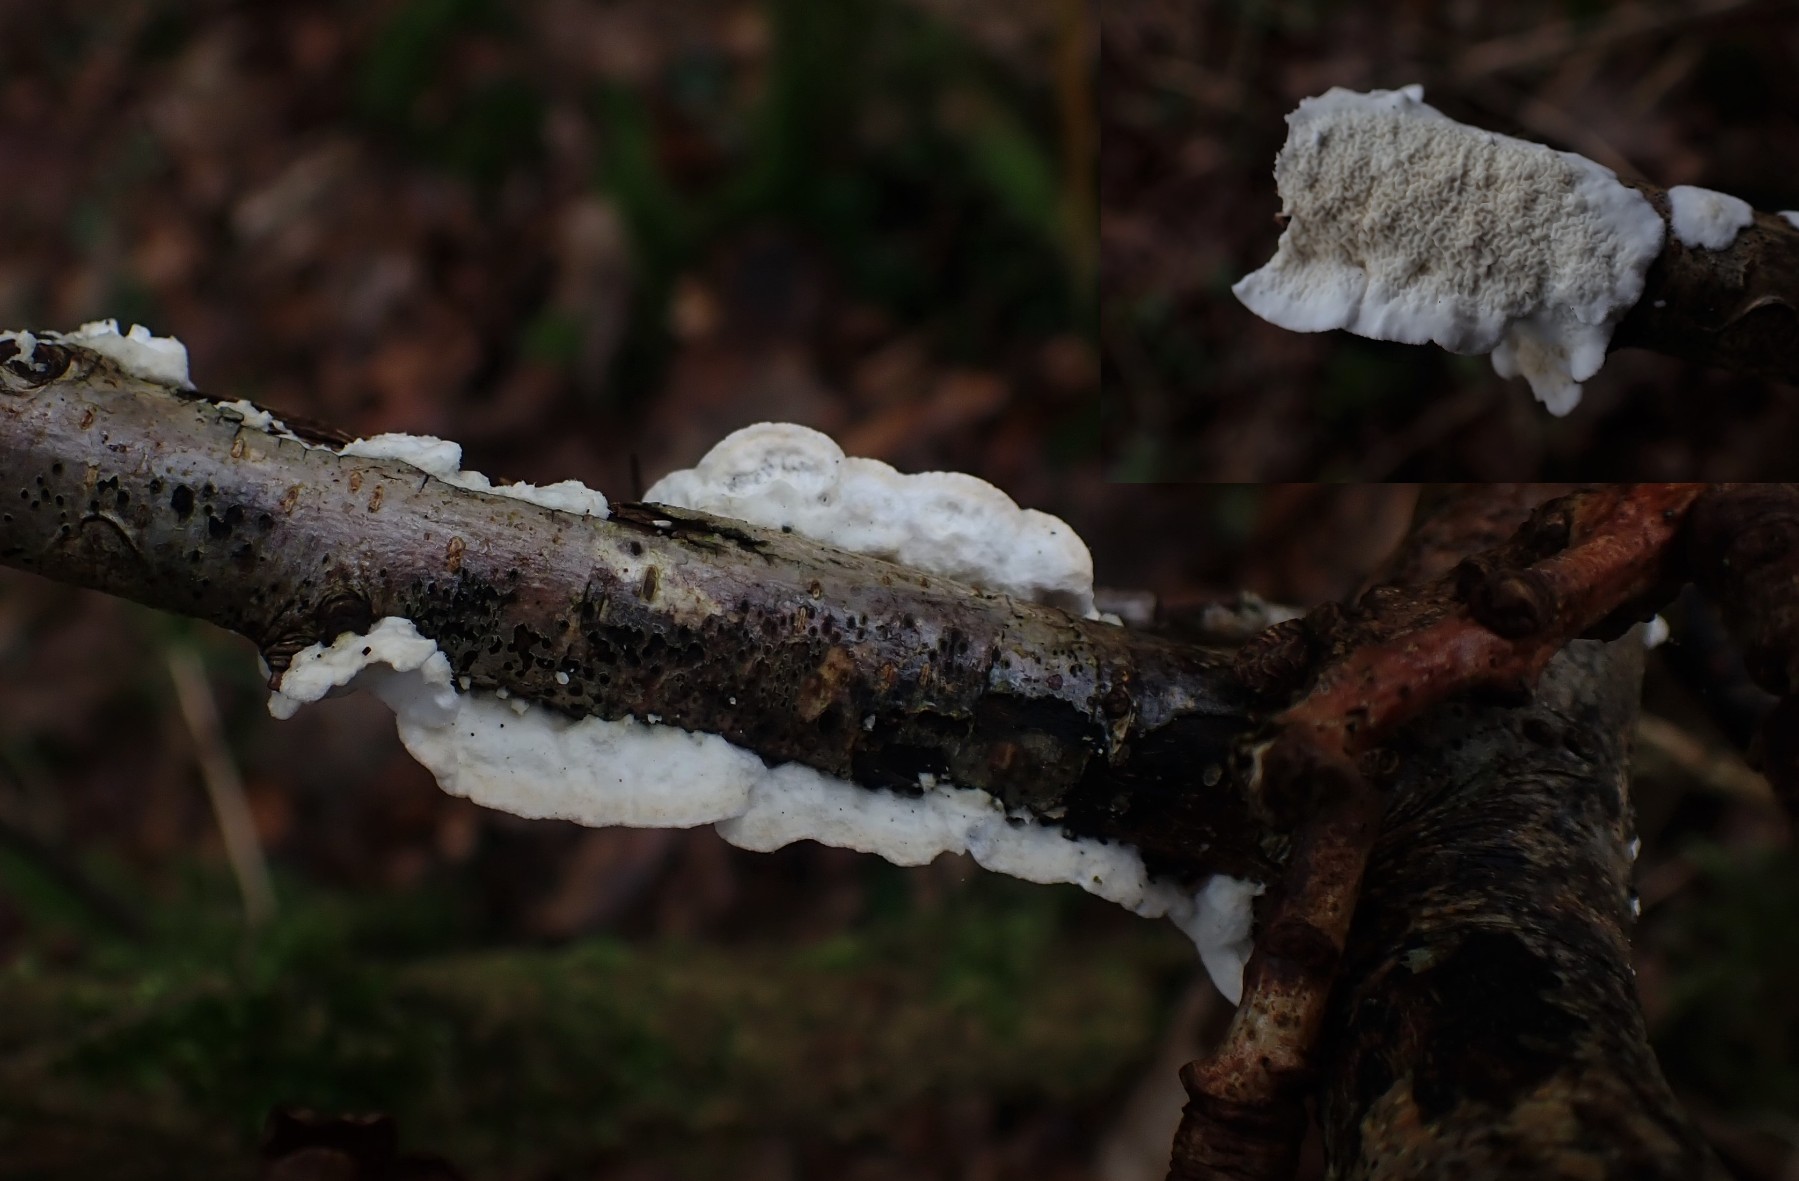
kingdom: Fungi
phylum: Basidiomycota
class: Agaricomycetes
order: Polyporales
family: Irpicaceae
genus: Byssomerulius
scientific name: Byssomerulius corium
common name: læder-åresvamp
